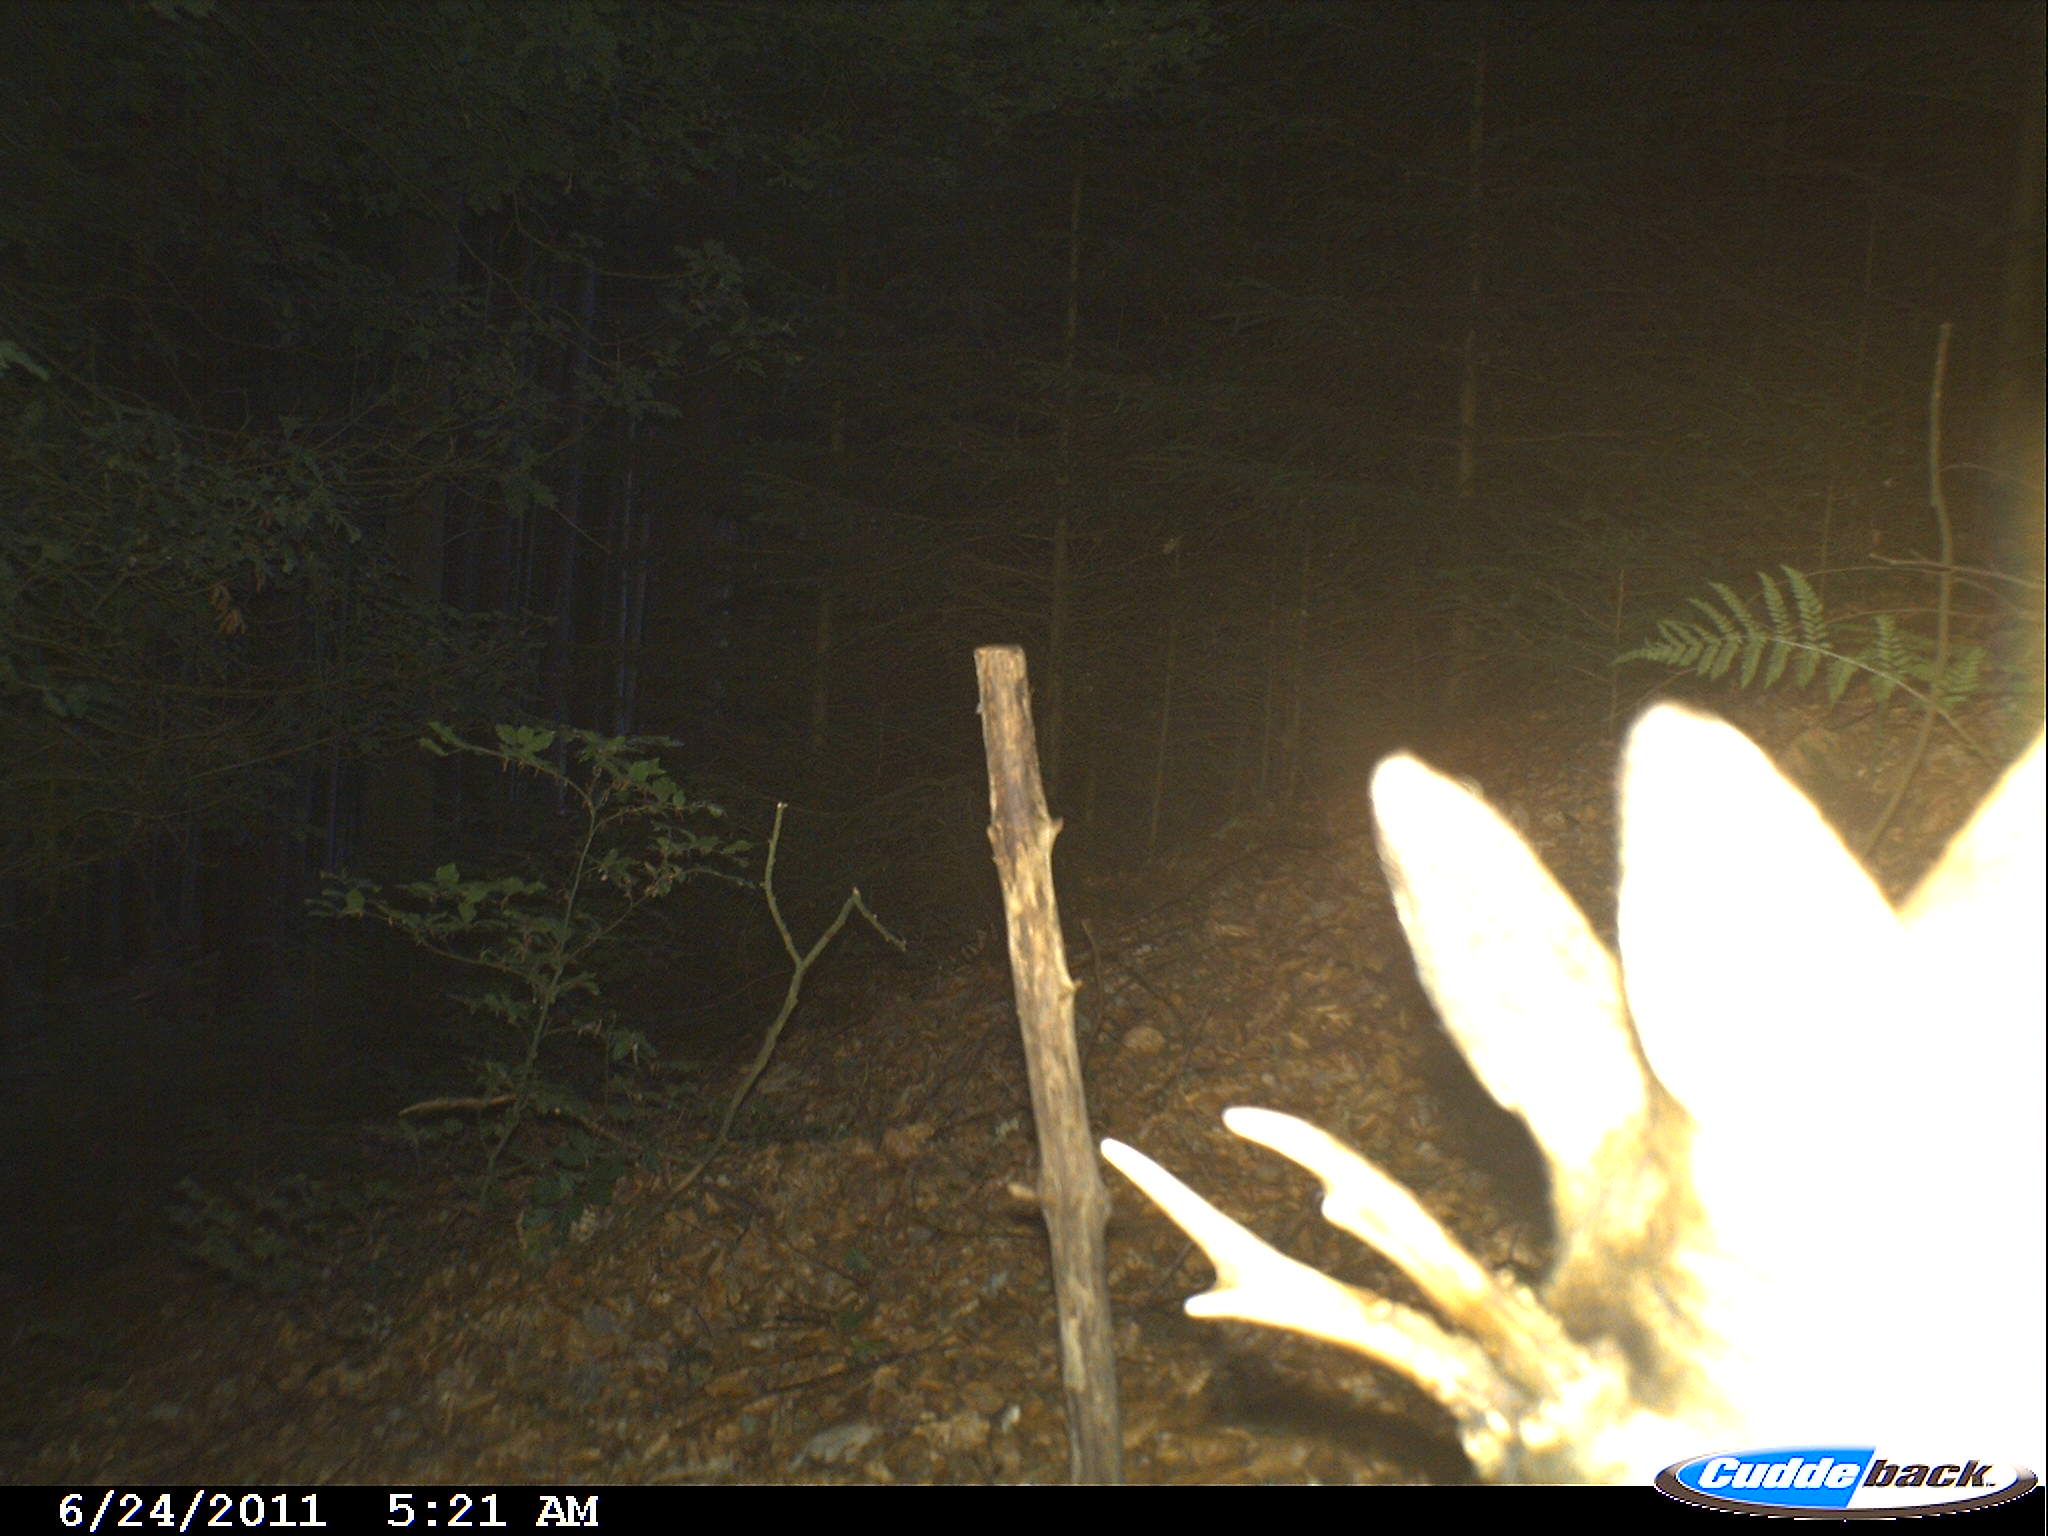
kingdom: Animalia
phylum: Chordata
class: Mammalia
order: Artiodactyla
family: Cervidae
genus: Capreolus
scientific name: Capreolus capreolus
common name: Western roe deer
